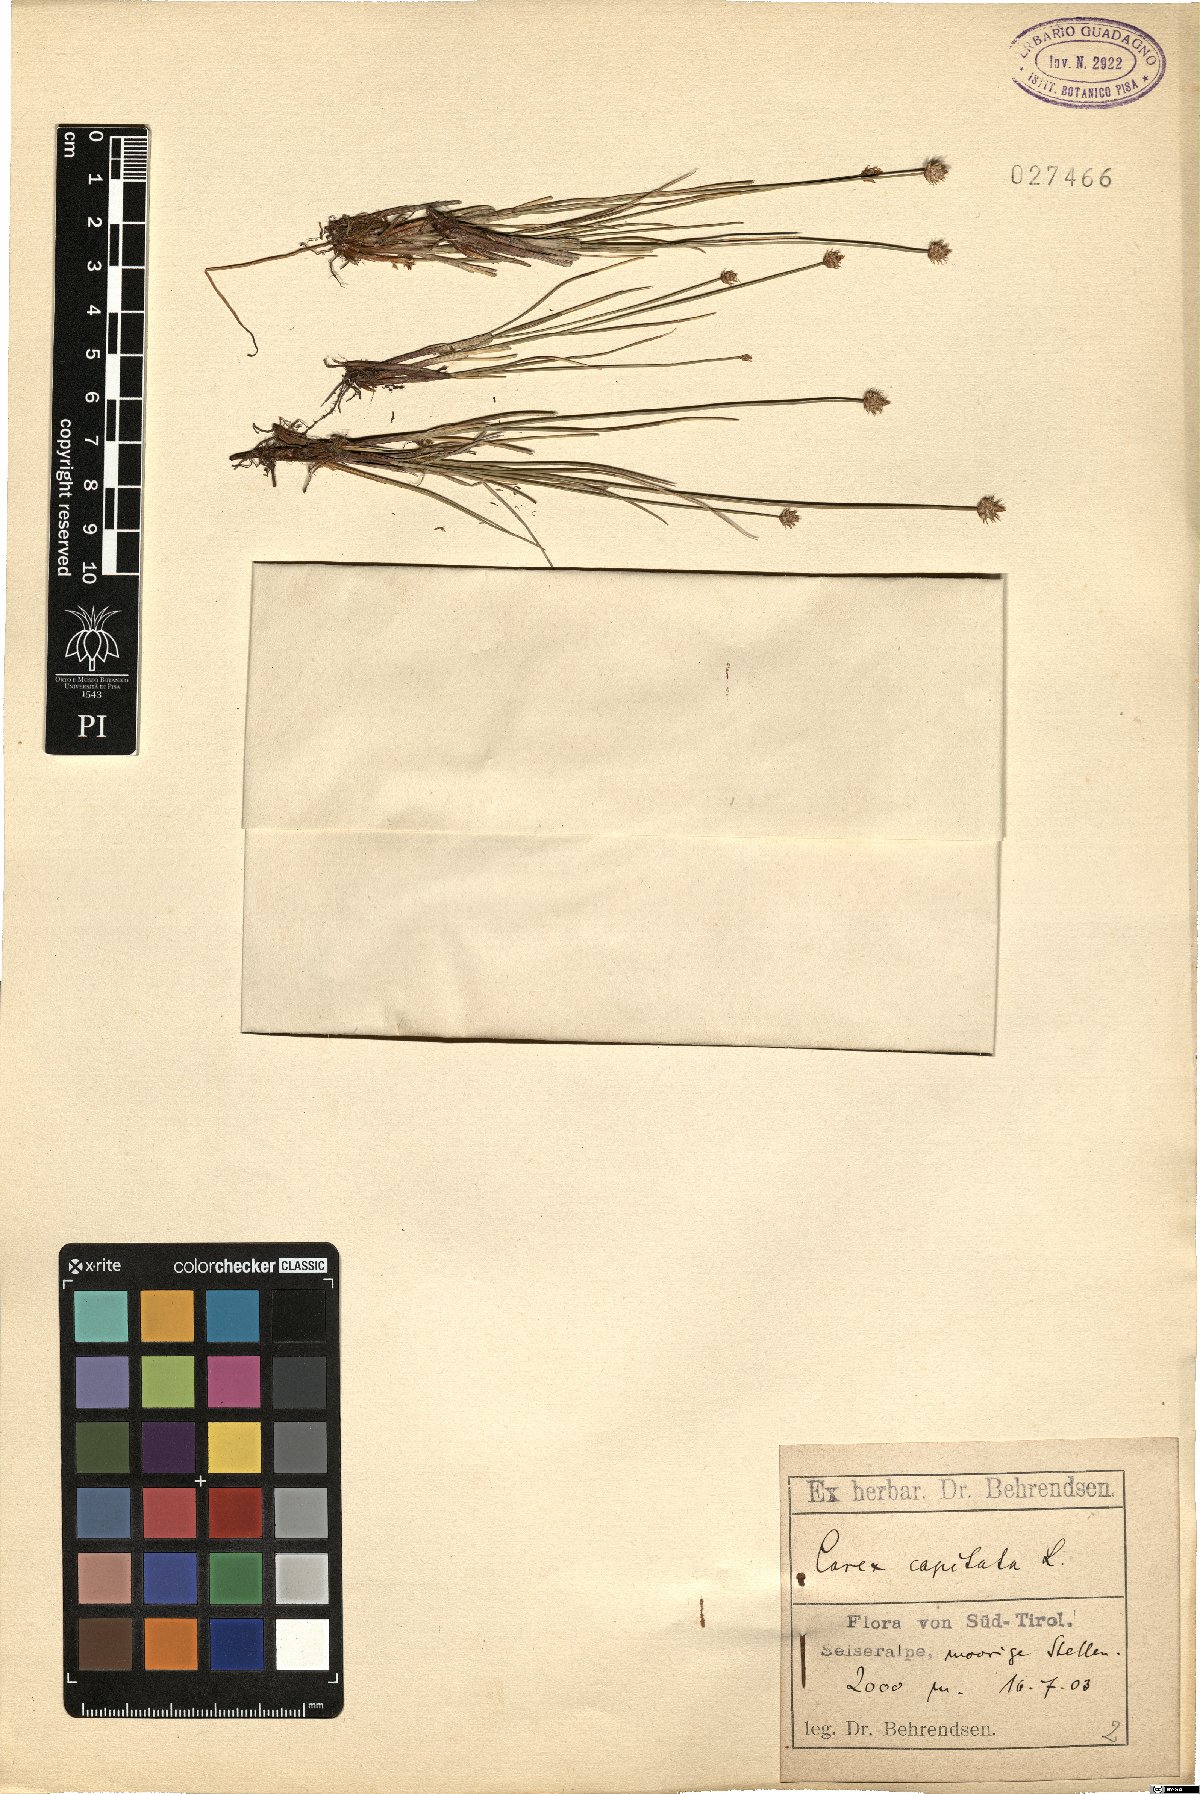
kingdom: Plantae
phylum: Tracheophyta
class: Liliopsida
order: Poales
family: Cyperaceae
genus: Carex
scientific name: Carex capitata
